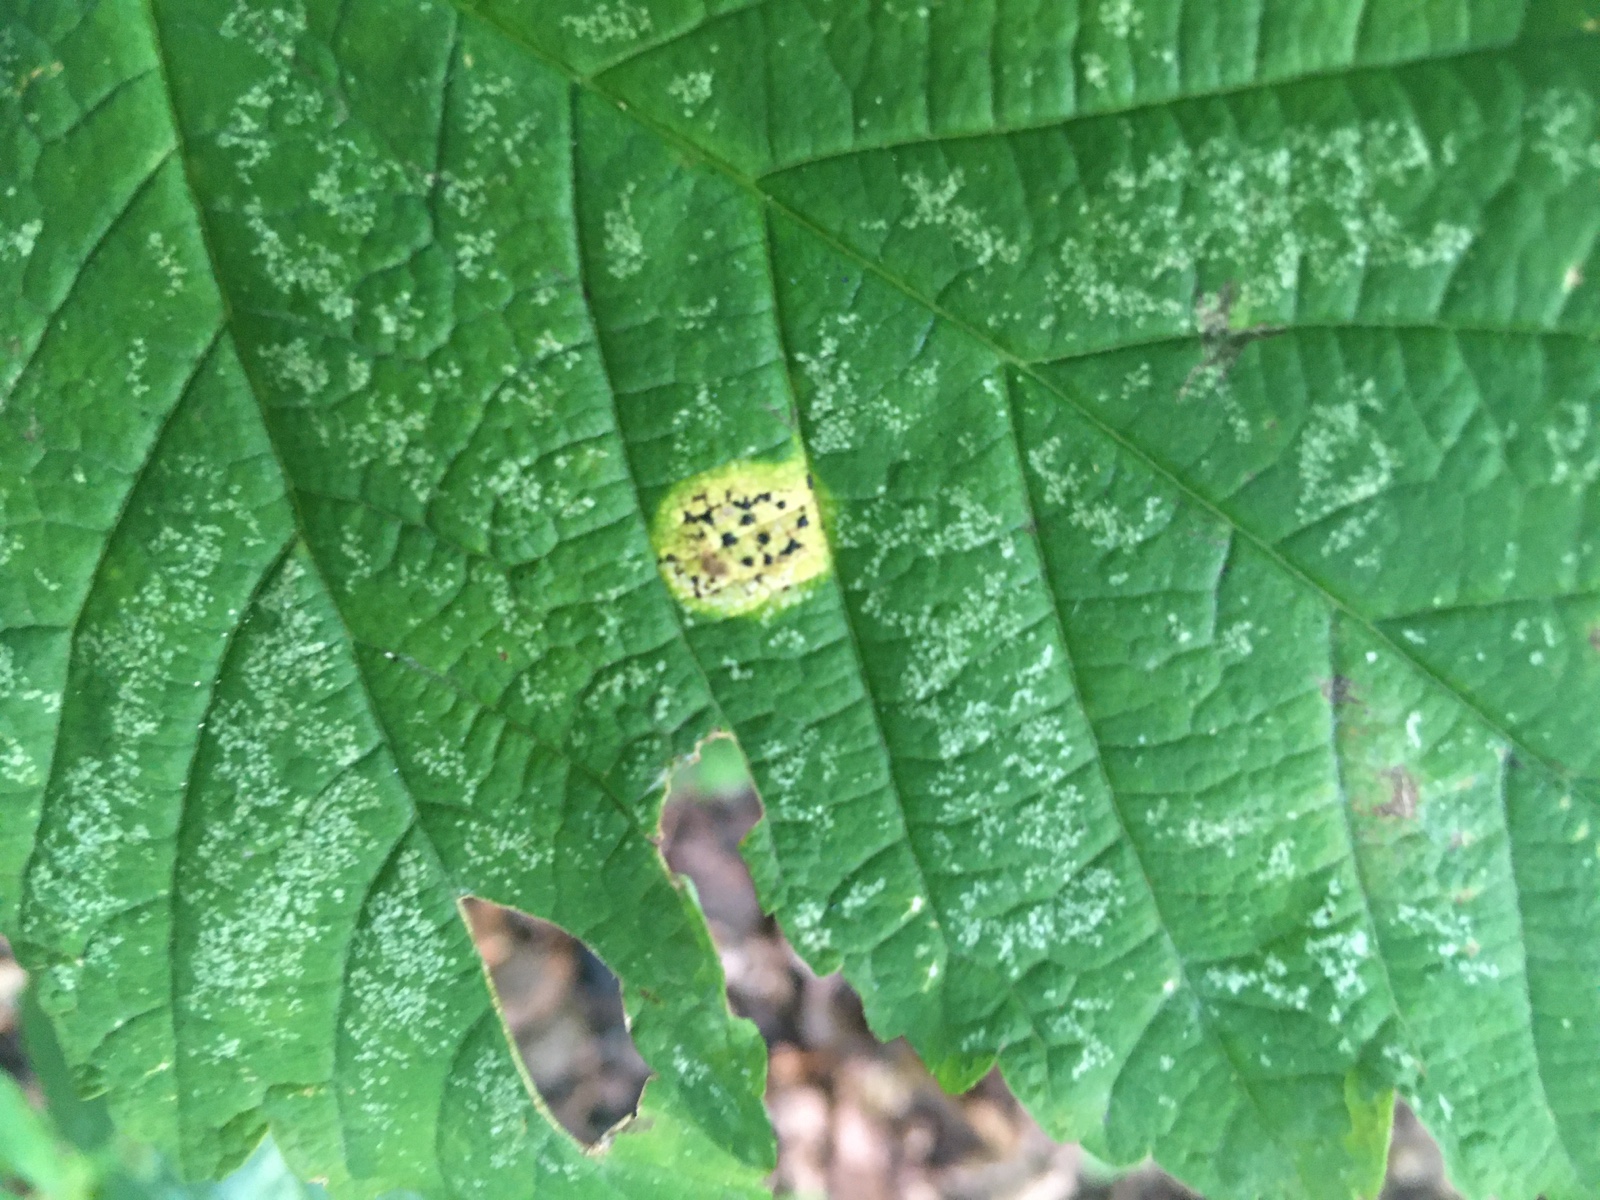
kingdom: Fungi
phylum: Ascomycota
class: Leotiomycetes
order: Rhytismatales
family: Rhytismataceae
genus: Rhytisma
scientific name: Rhytisma acerinum
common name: ahorn-rynkeplet
